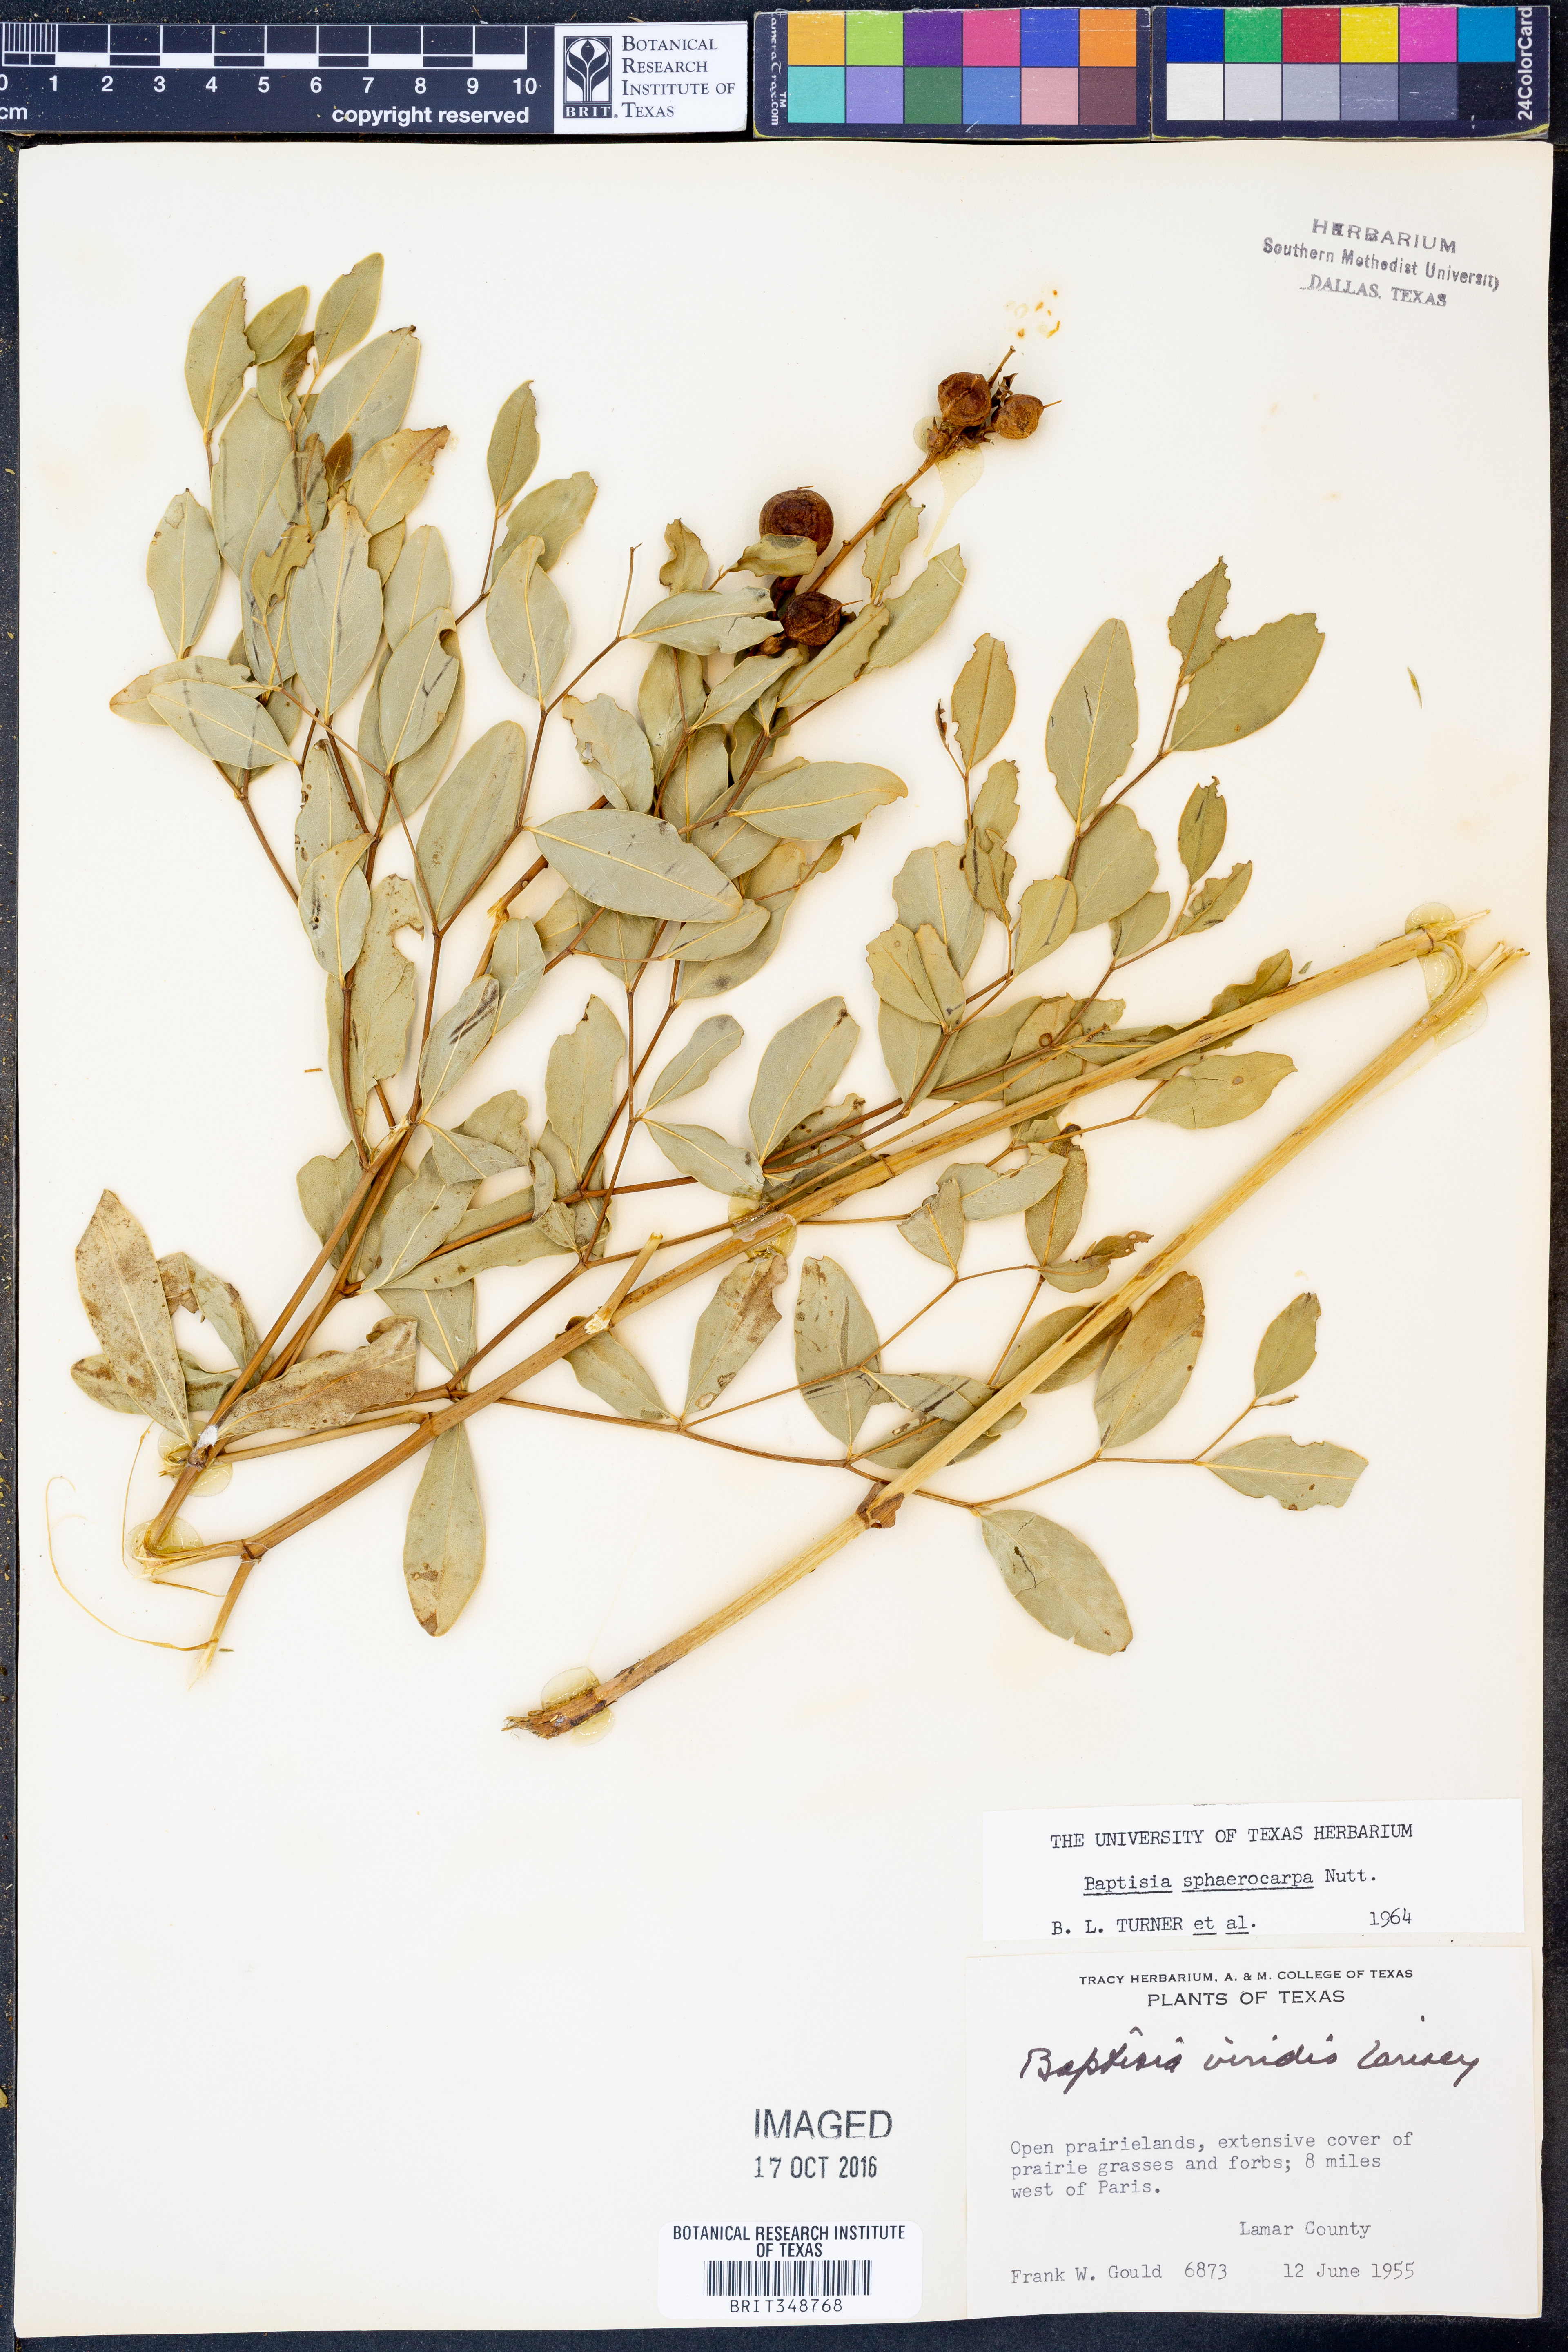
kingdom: Plantae
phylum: Tracheophyta
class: Magnoliopsida
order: Fabales
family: Fabaceae
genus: Baptisia
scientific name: Baptisia sphaerocarpa
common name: Round wild indigo
